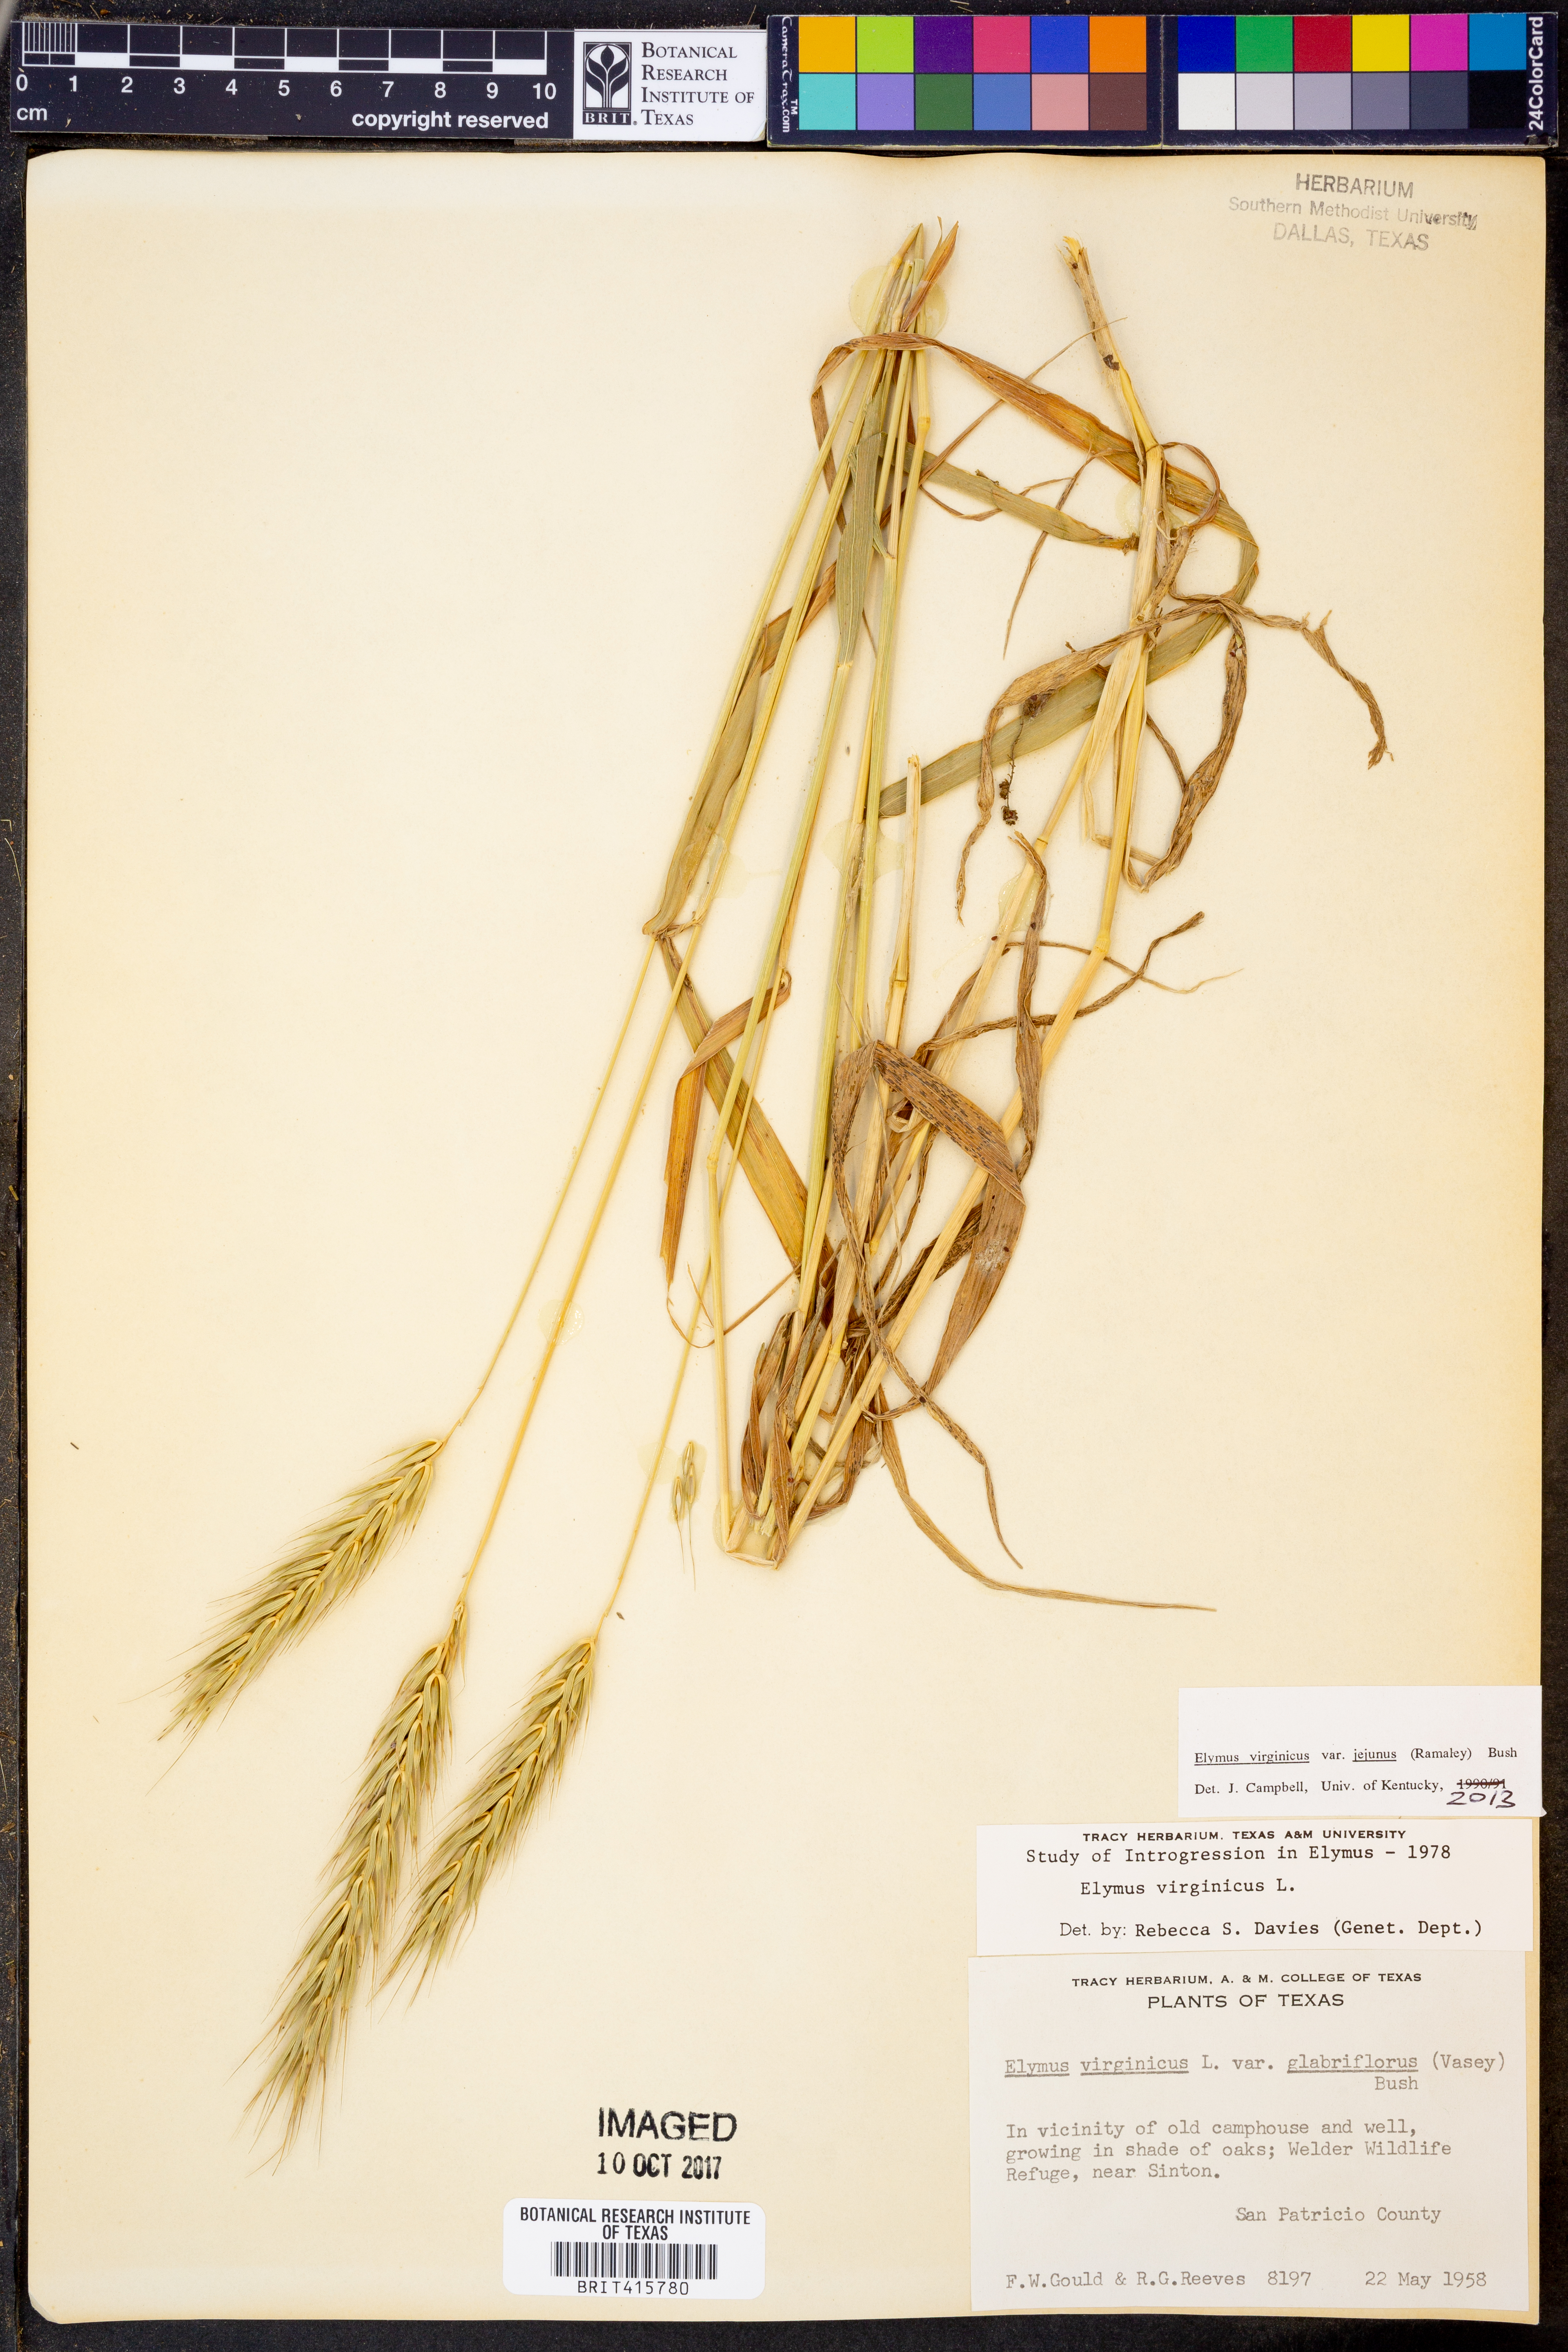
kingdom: Plantae
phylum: Tracheophyta
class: Liliopsida
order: Poales
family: Poaceae
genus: Elymus
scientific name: Elymus virginicus
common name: Common eastern wildrye
